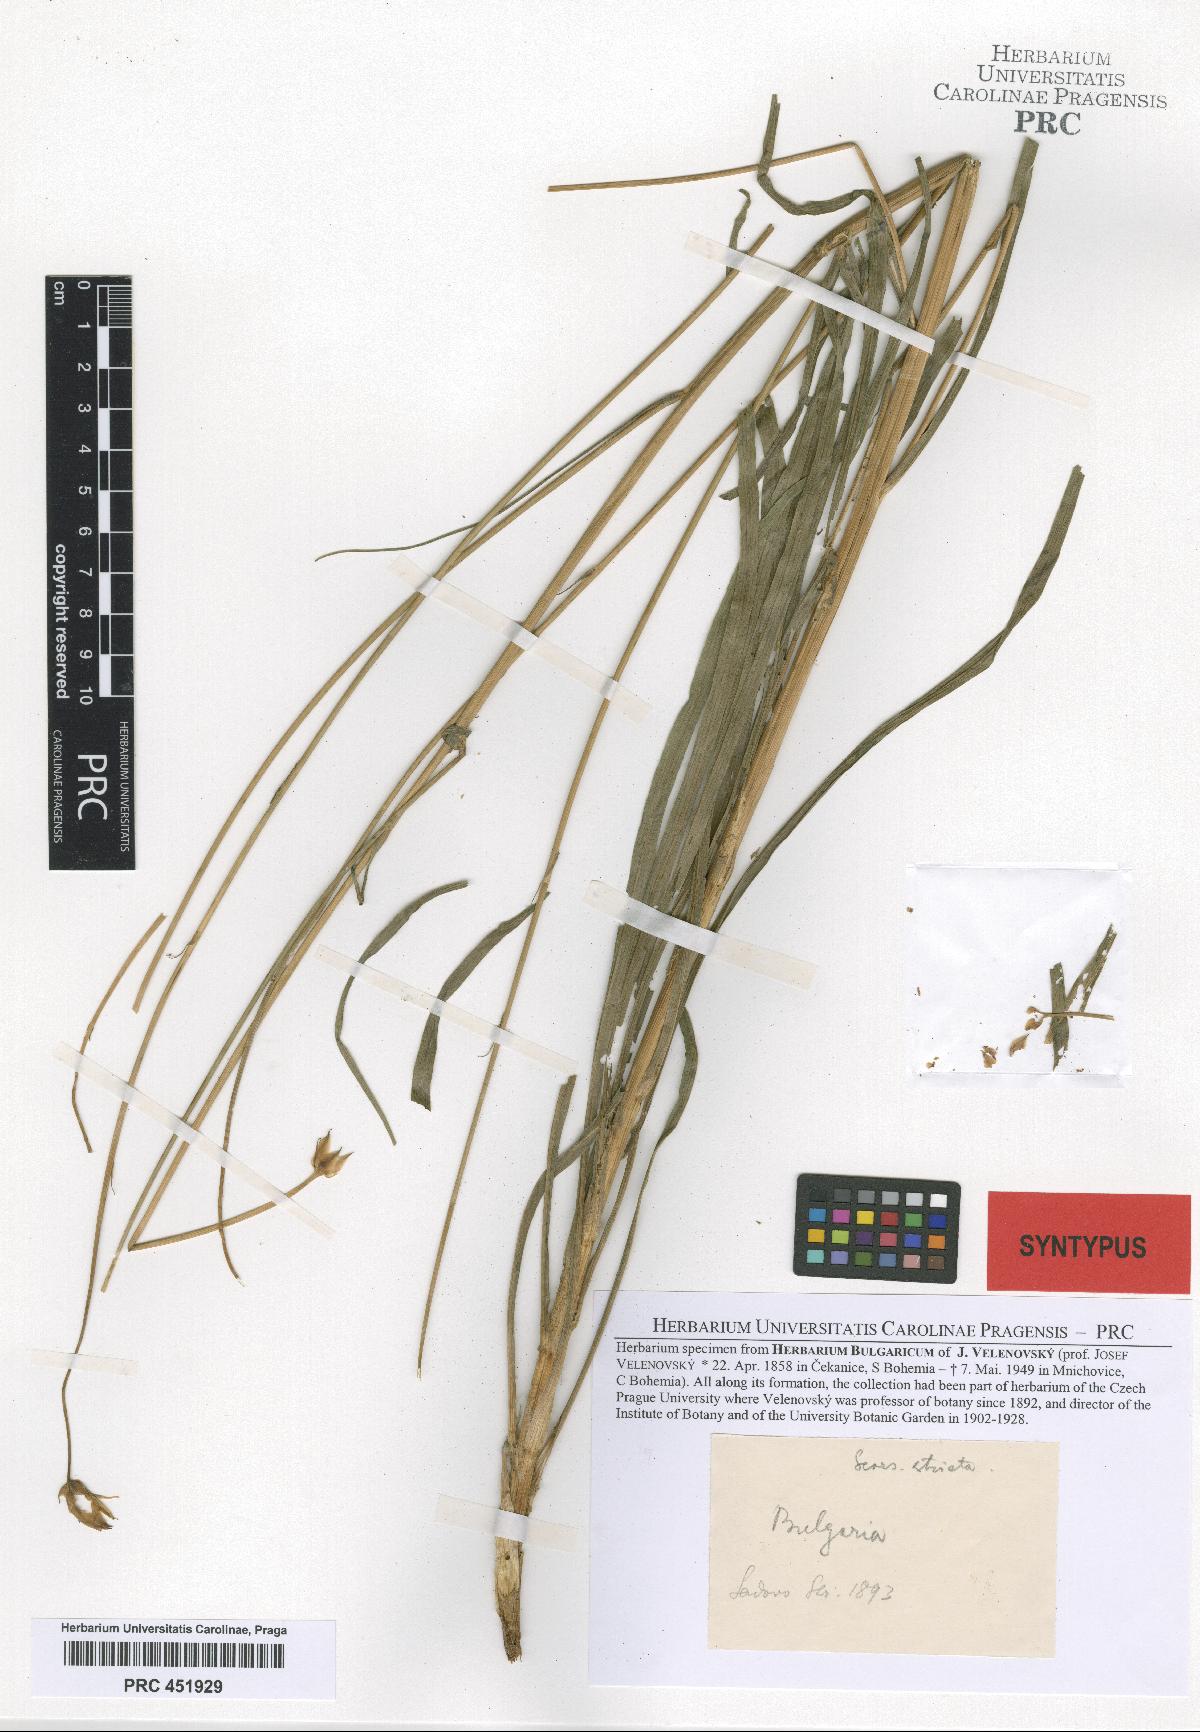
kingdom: Plantae
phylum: Tracheophyta
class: Magnoliopsida
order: Asterales
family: Asteraceae
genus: Pseudopodospermum
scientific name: Pseudopodospermum tauricum
